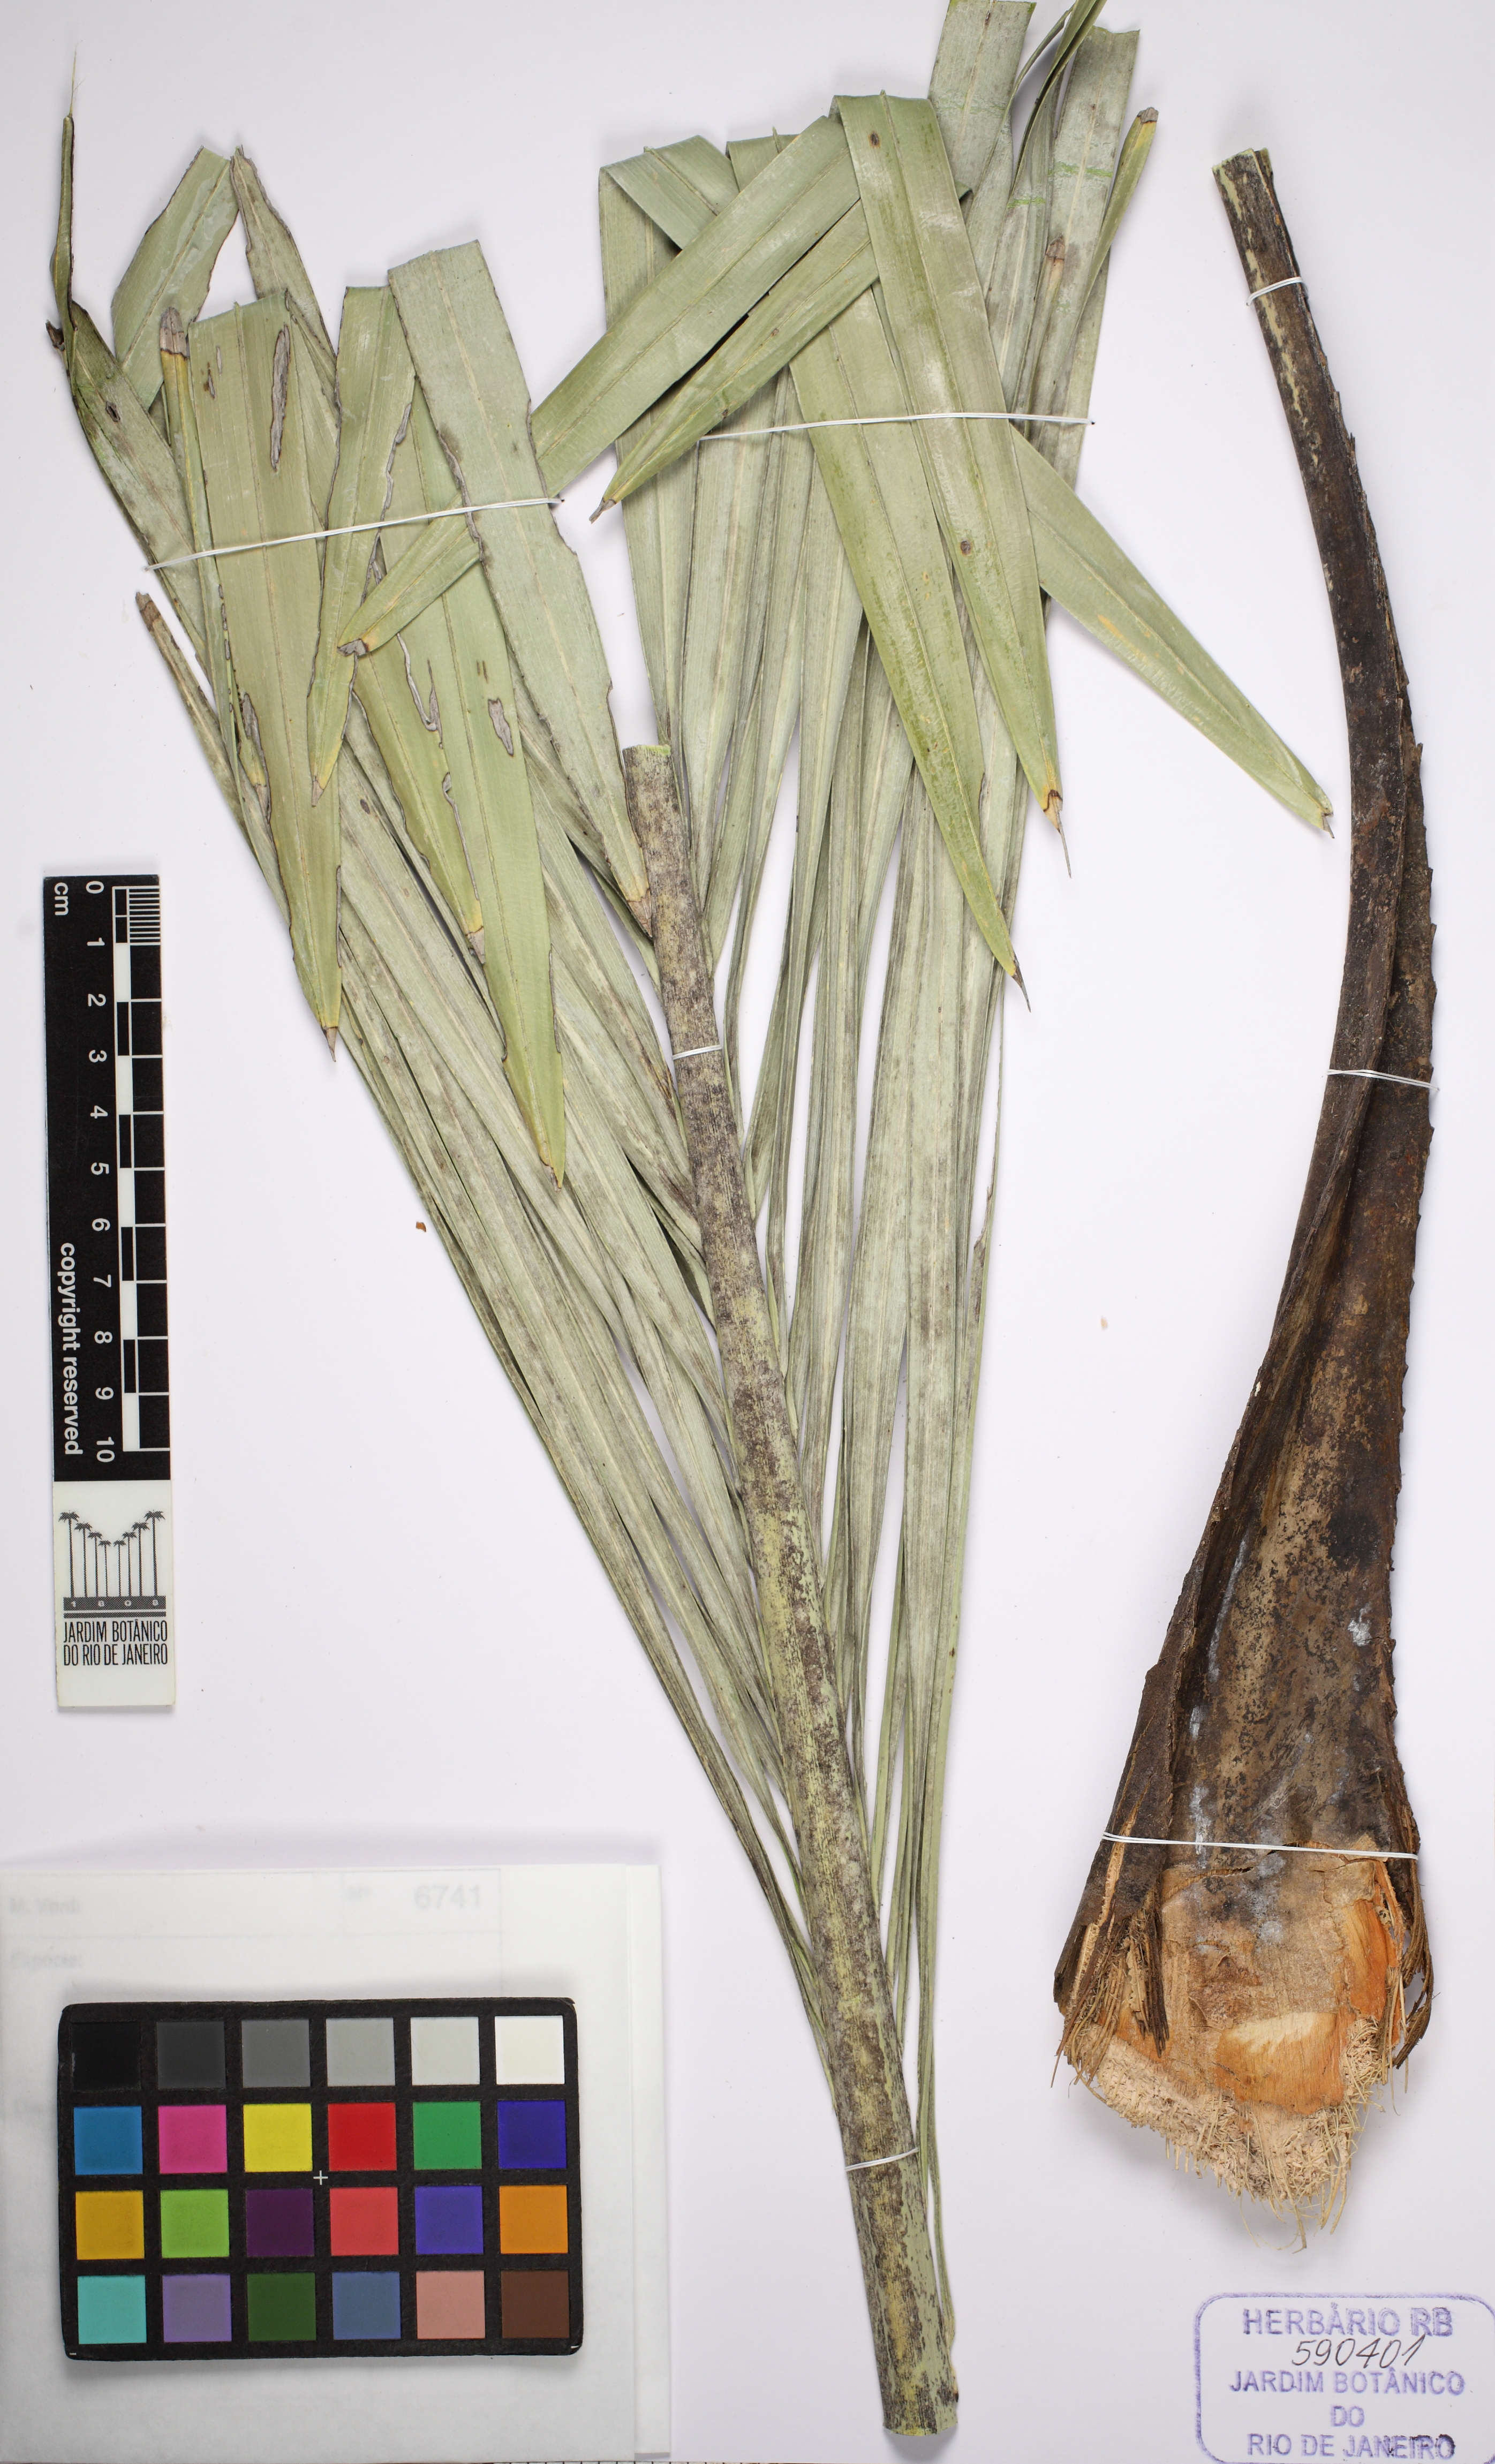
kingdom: Plantae
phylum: Tracheophyta
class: Liliopsida
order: Arecales
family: Arecaceae
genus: Syagrus
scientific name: Syagrus duartei
